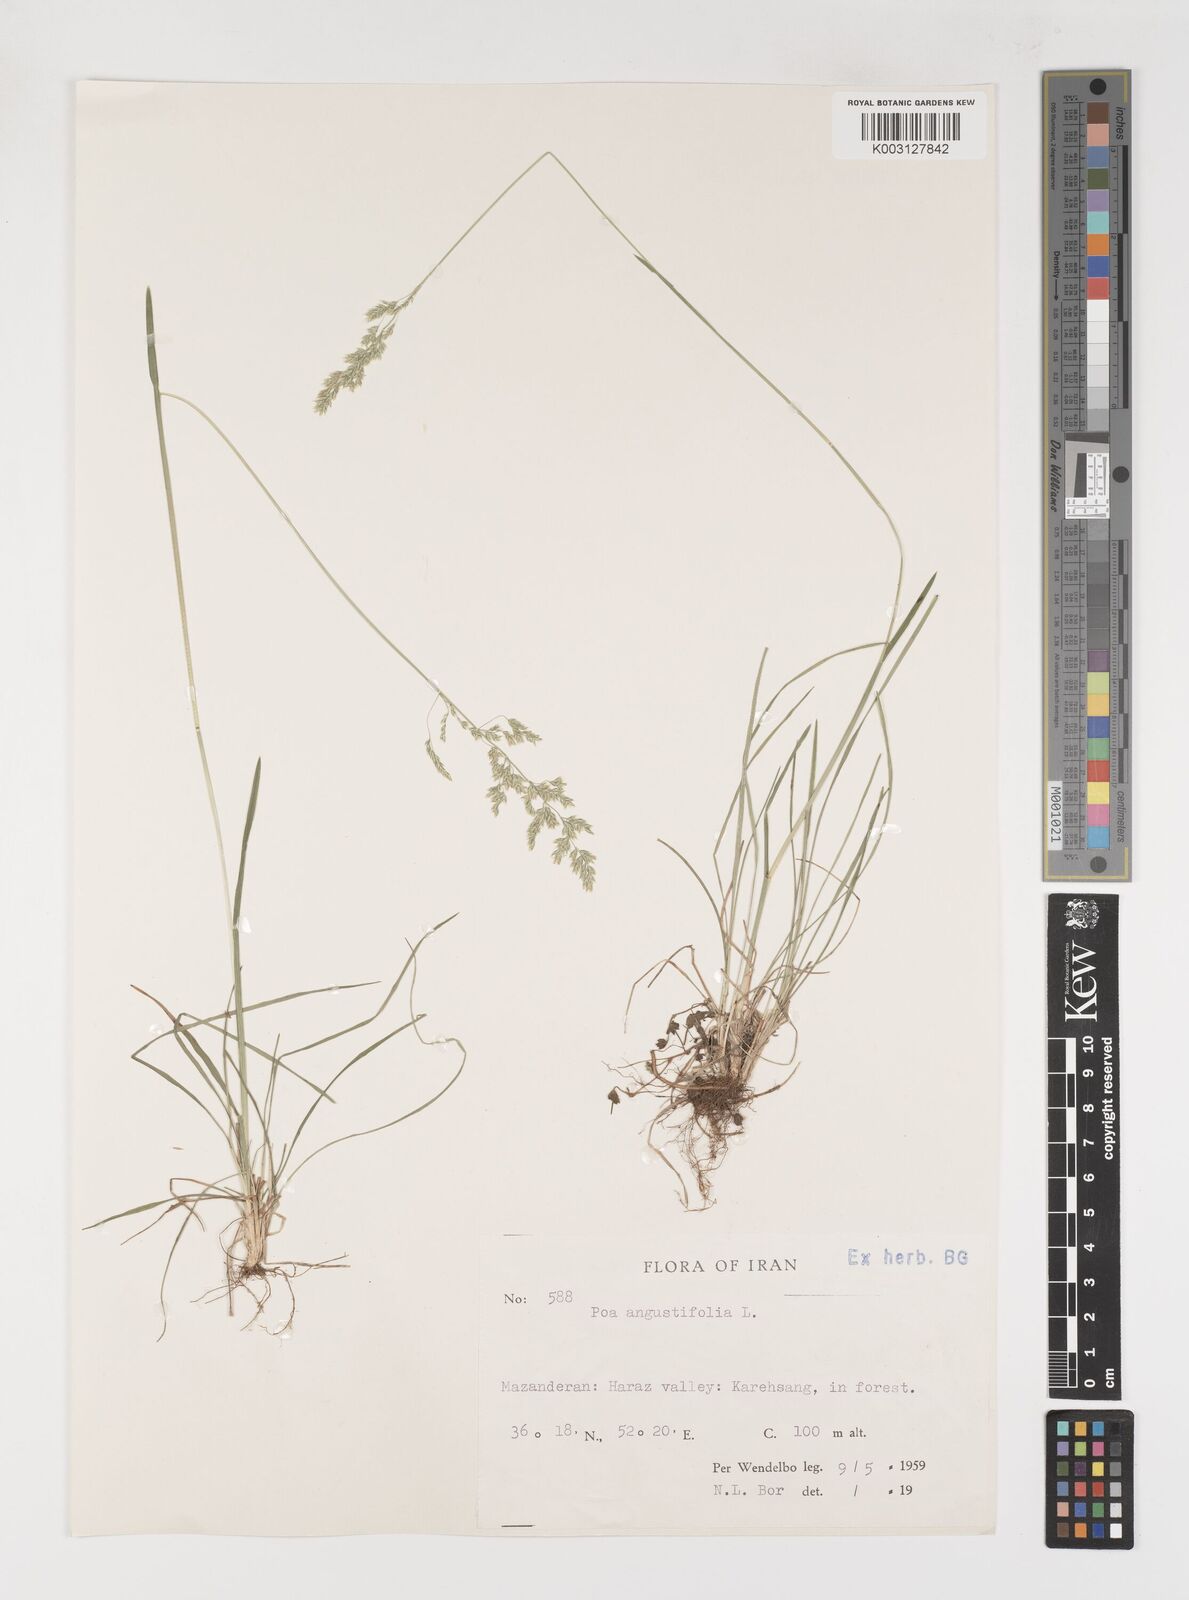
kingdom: Plantae
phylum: Tracheophyta
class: Liliopsida
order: Poales
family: Poaceae
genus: Poa
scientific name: Poa angustifolia
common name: Narrow-leaved meadow-grass
